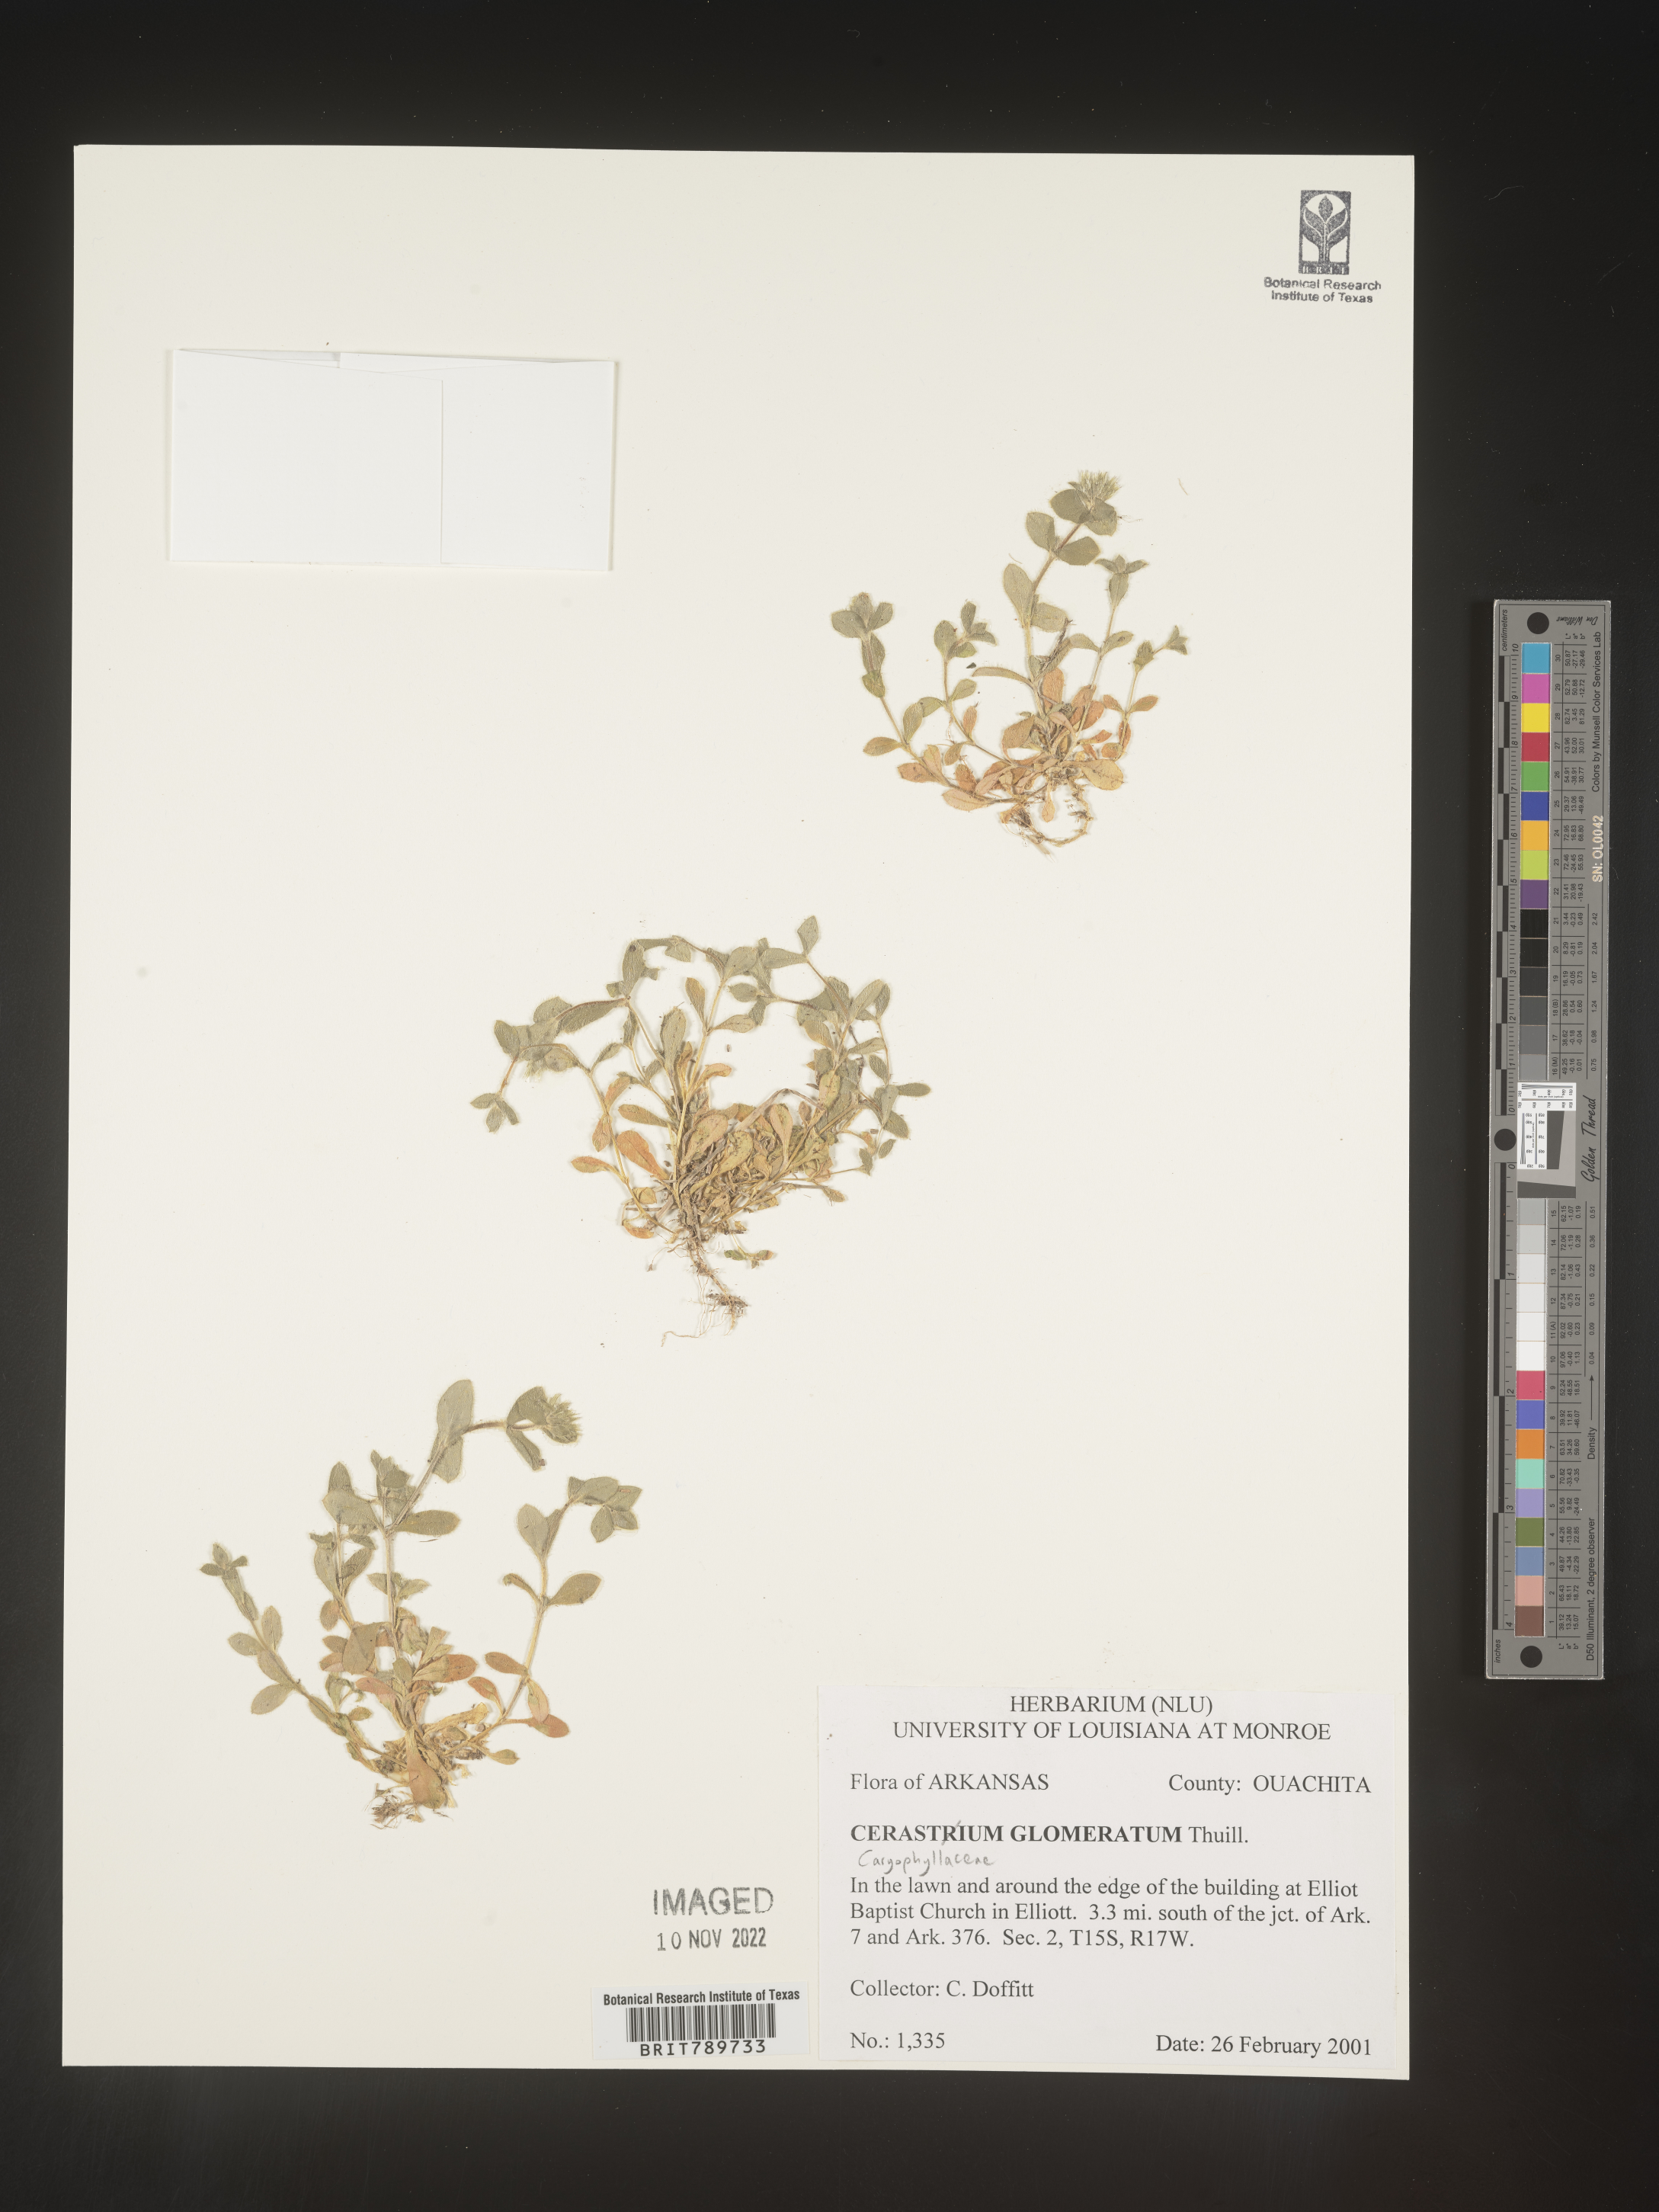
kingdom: Plantae
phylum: Tracheophyta
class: Magnoliopsida
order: Caryophyllales
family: Caryophyllaceae
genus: Cerastium
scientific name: Cerastium glomeratum
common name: Sticky chickweed
